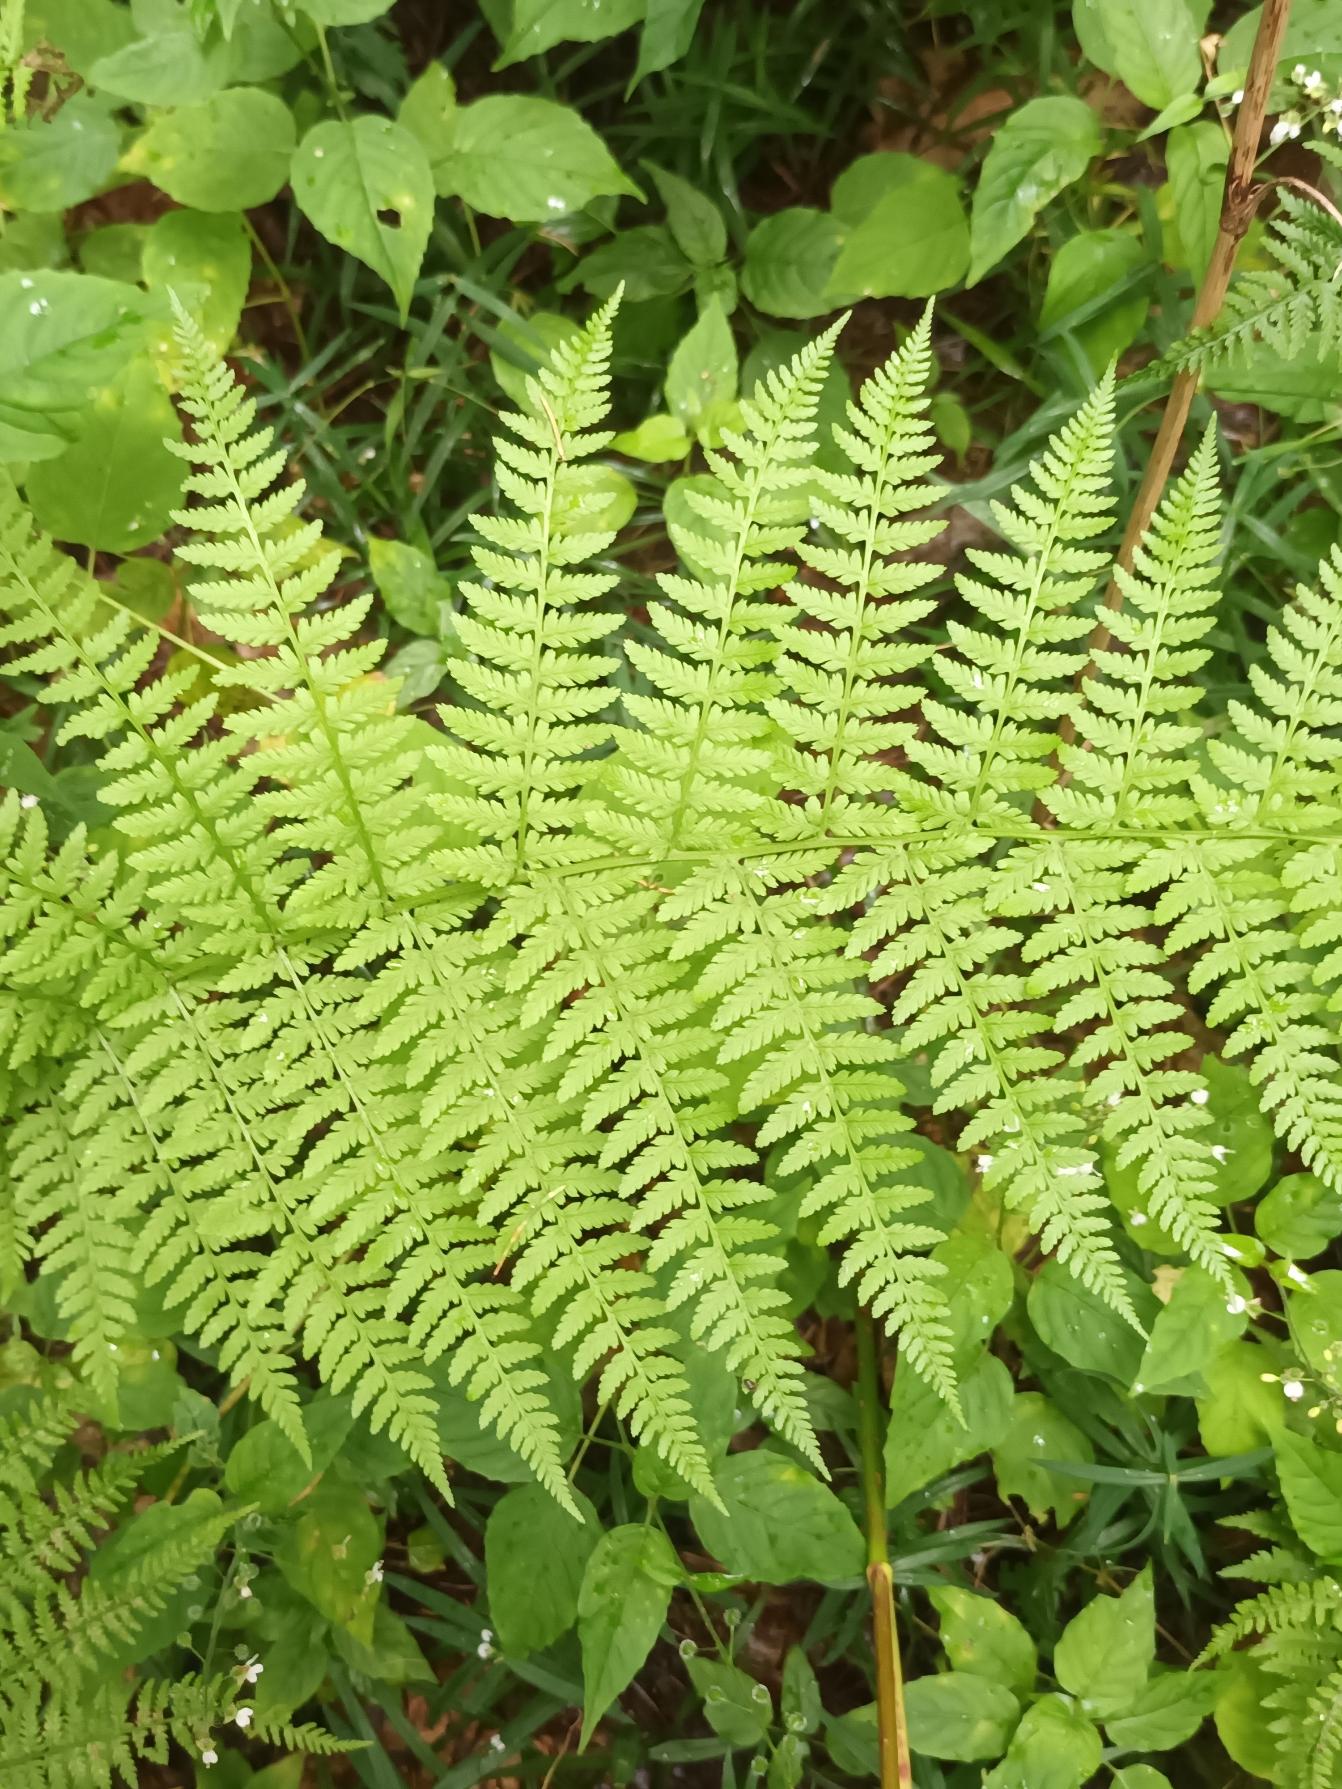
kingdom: Plantae
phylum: Tracheophyta
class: Polypodiopsida
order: Polypodiales
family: Athyriaceae
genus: Athyrium
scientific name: Athyrium filix-femina
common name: Fjerbregne
